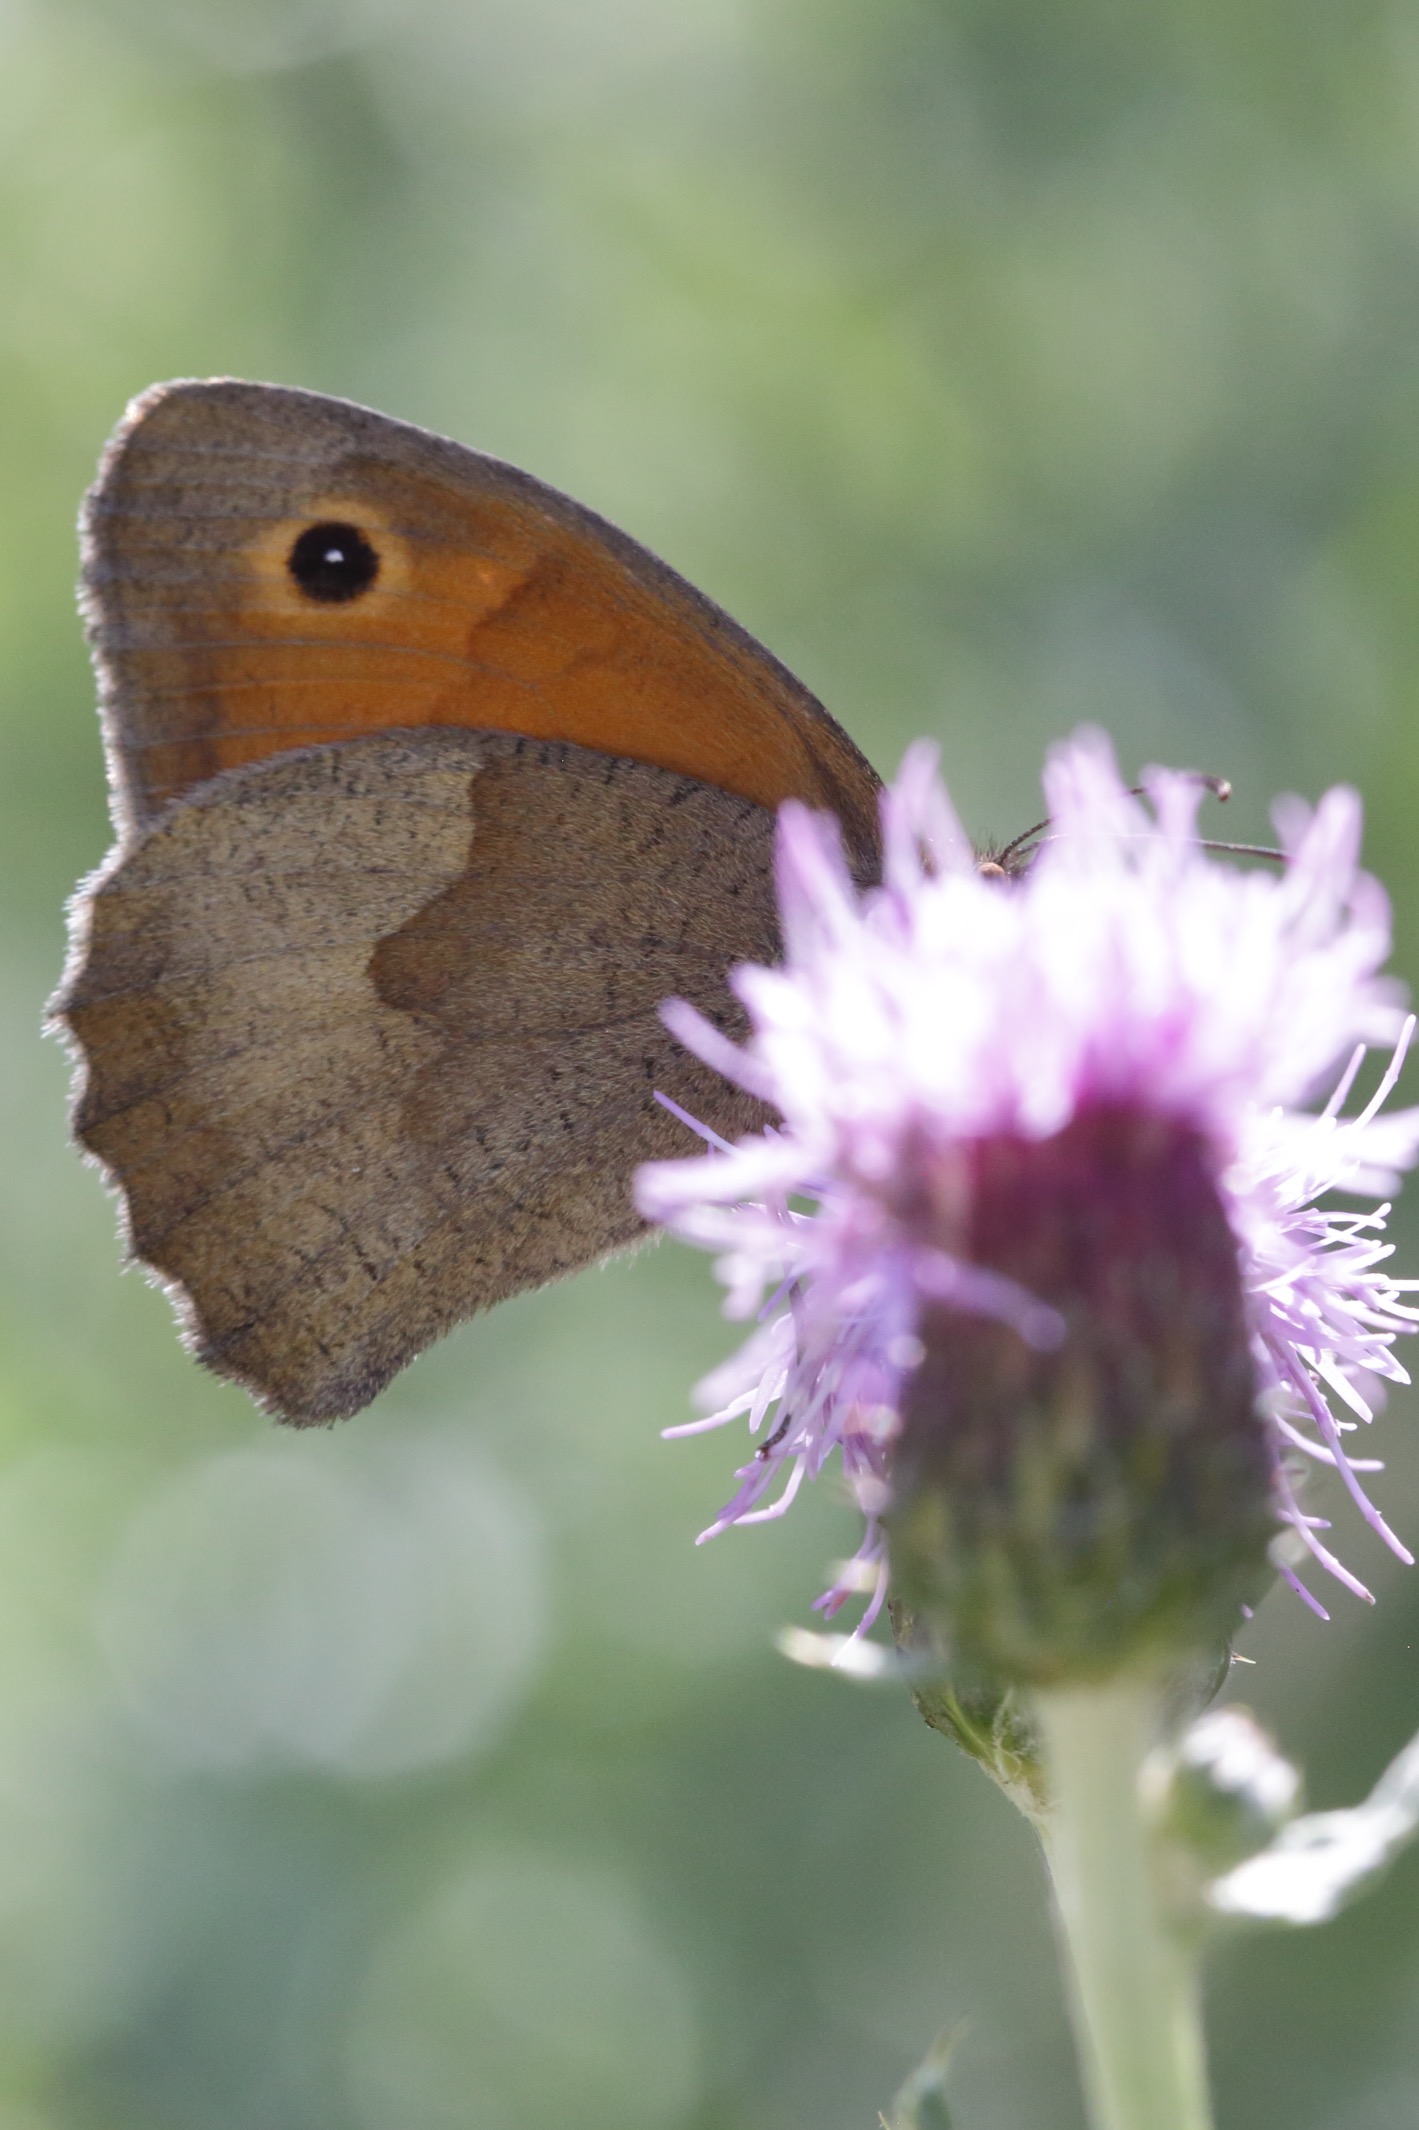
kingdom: Animalia
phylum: Arthropoda
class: Insecta
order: Lepidoptera
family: Nymphalidae
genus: Maniola
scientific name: Maniola jurtina
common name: Græsrandøje
